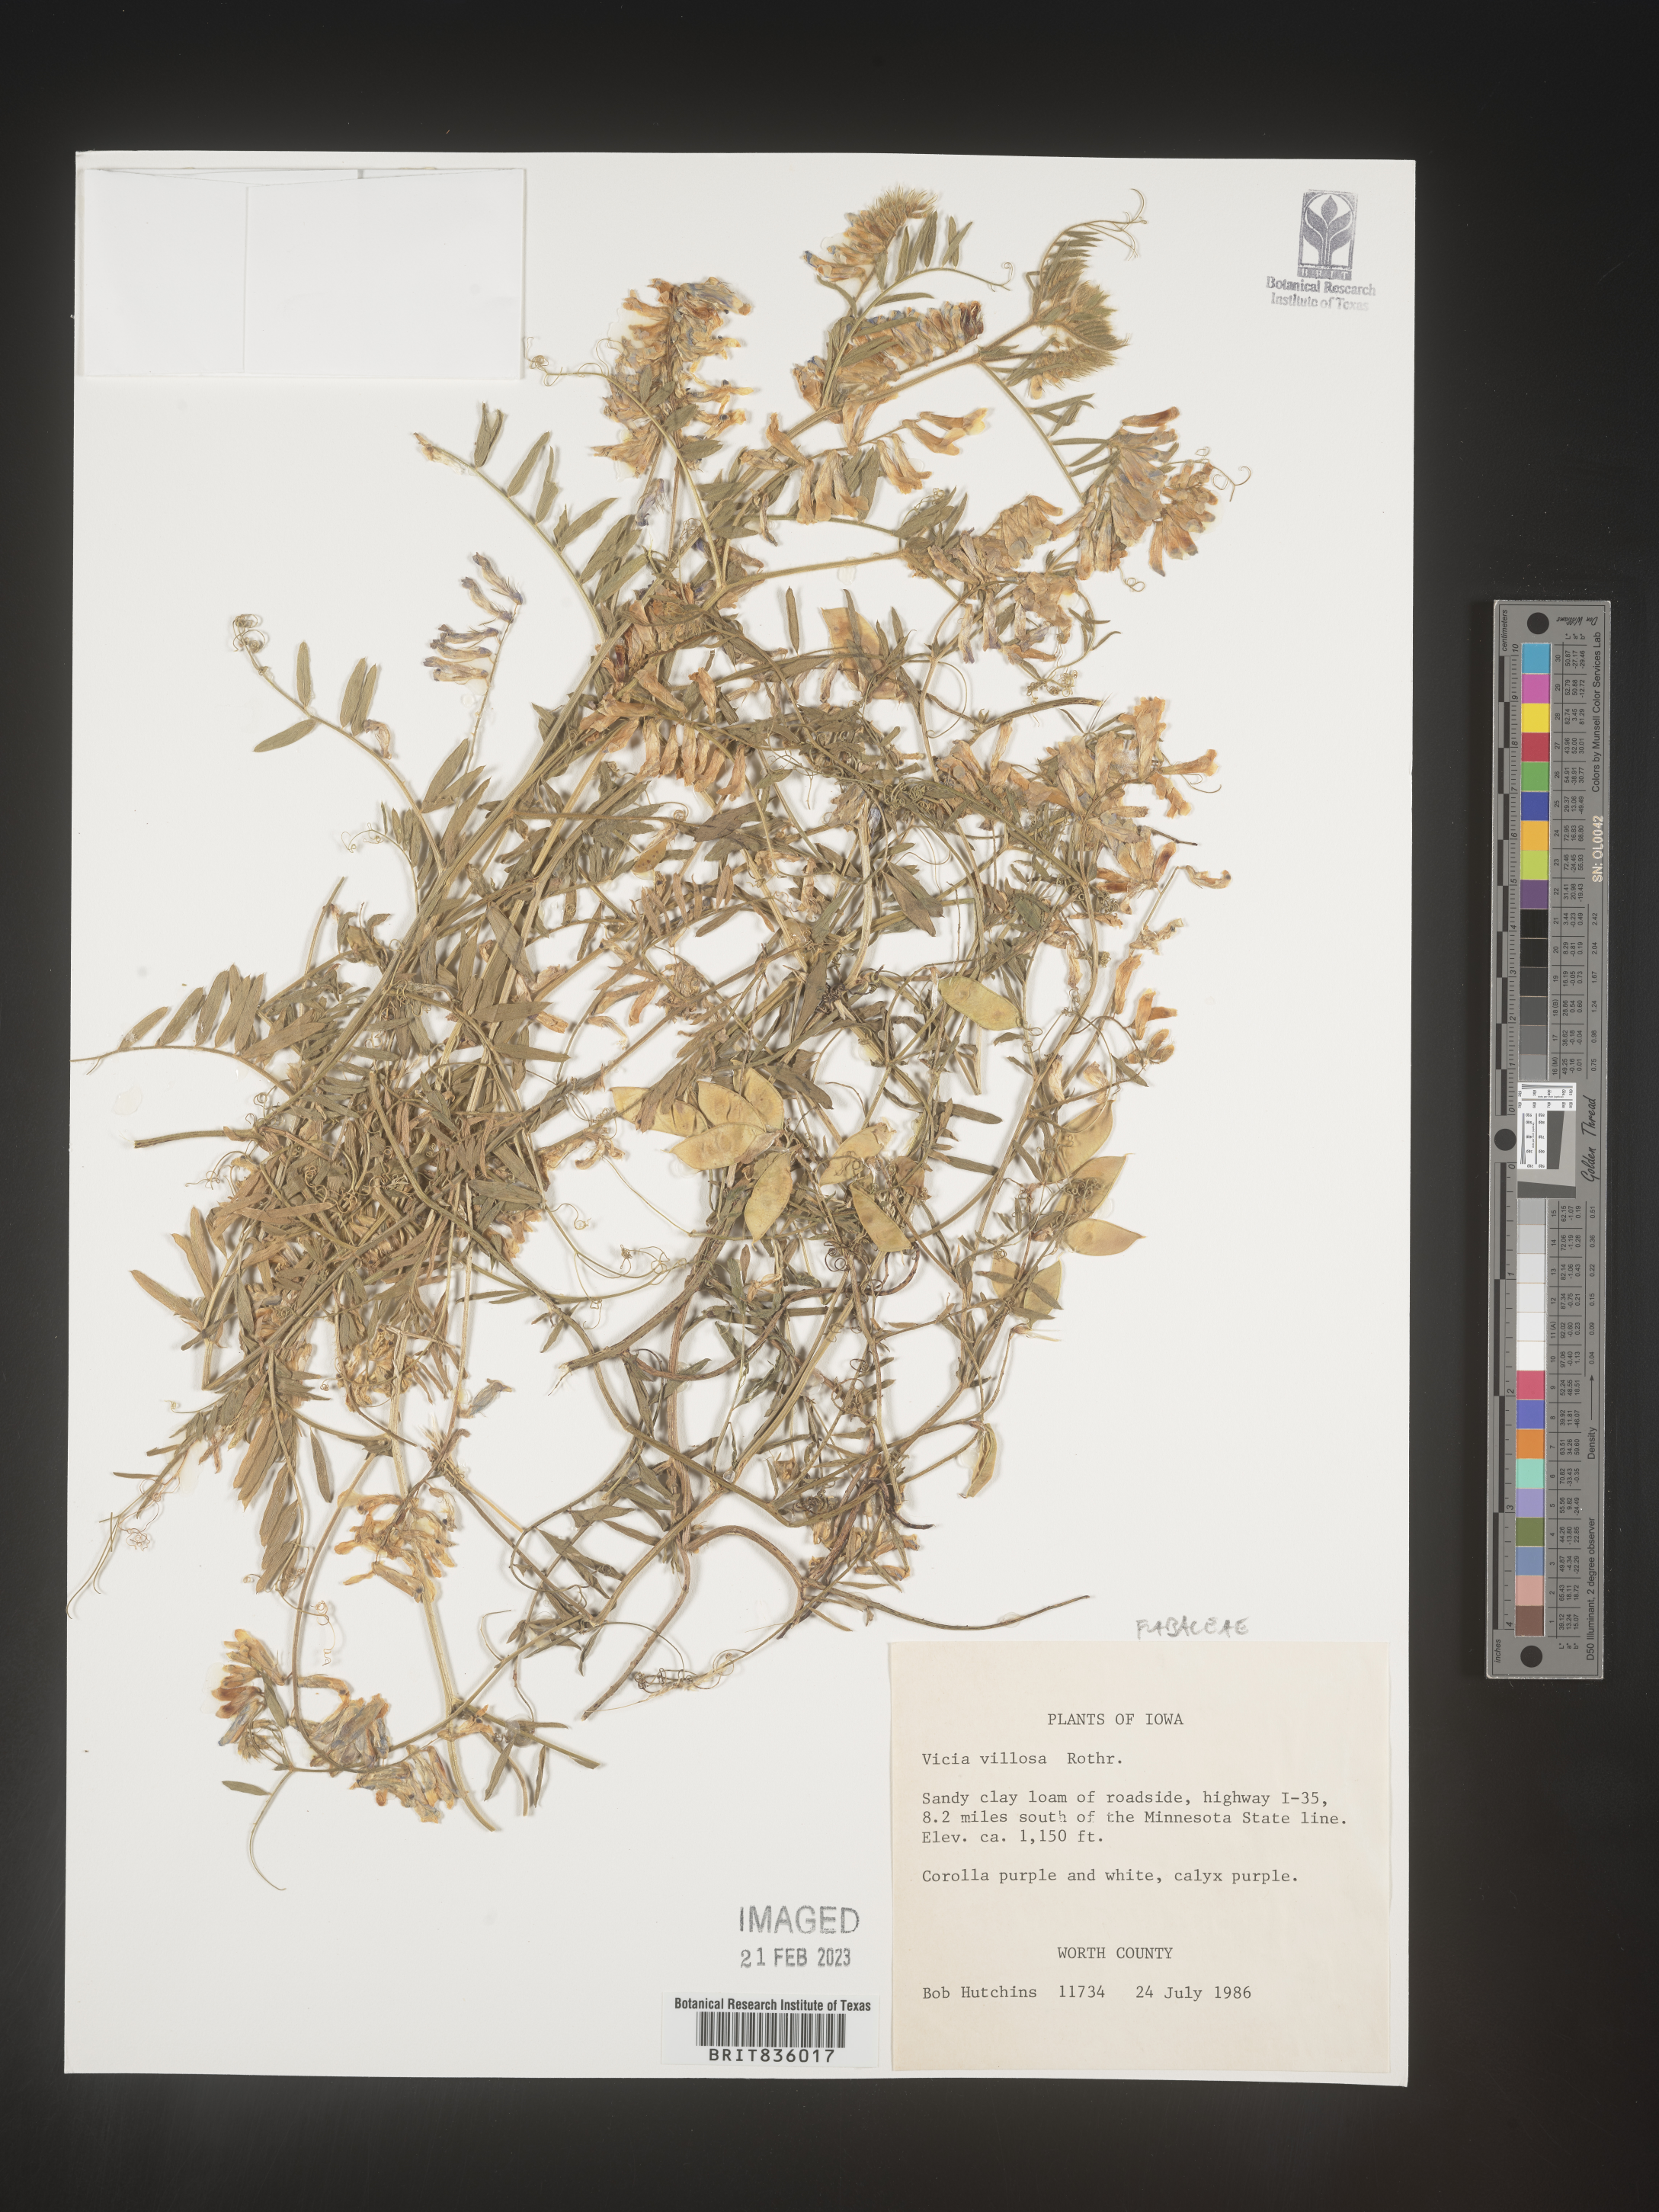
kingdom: Plantae
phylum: Tracheophyta
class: Magnoliopsida
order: Fabales
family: Fabaceae
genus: Vicia
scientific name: Vicia villosa
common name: Fodder vetch
